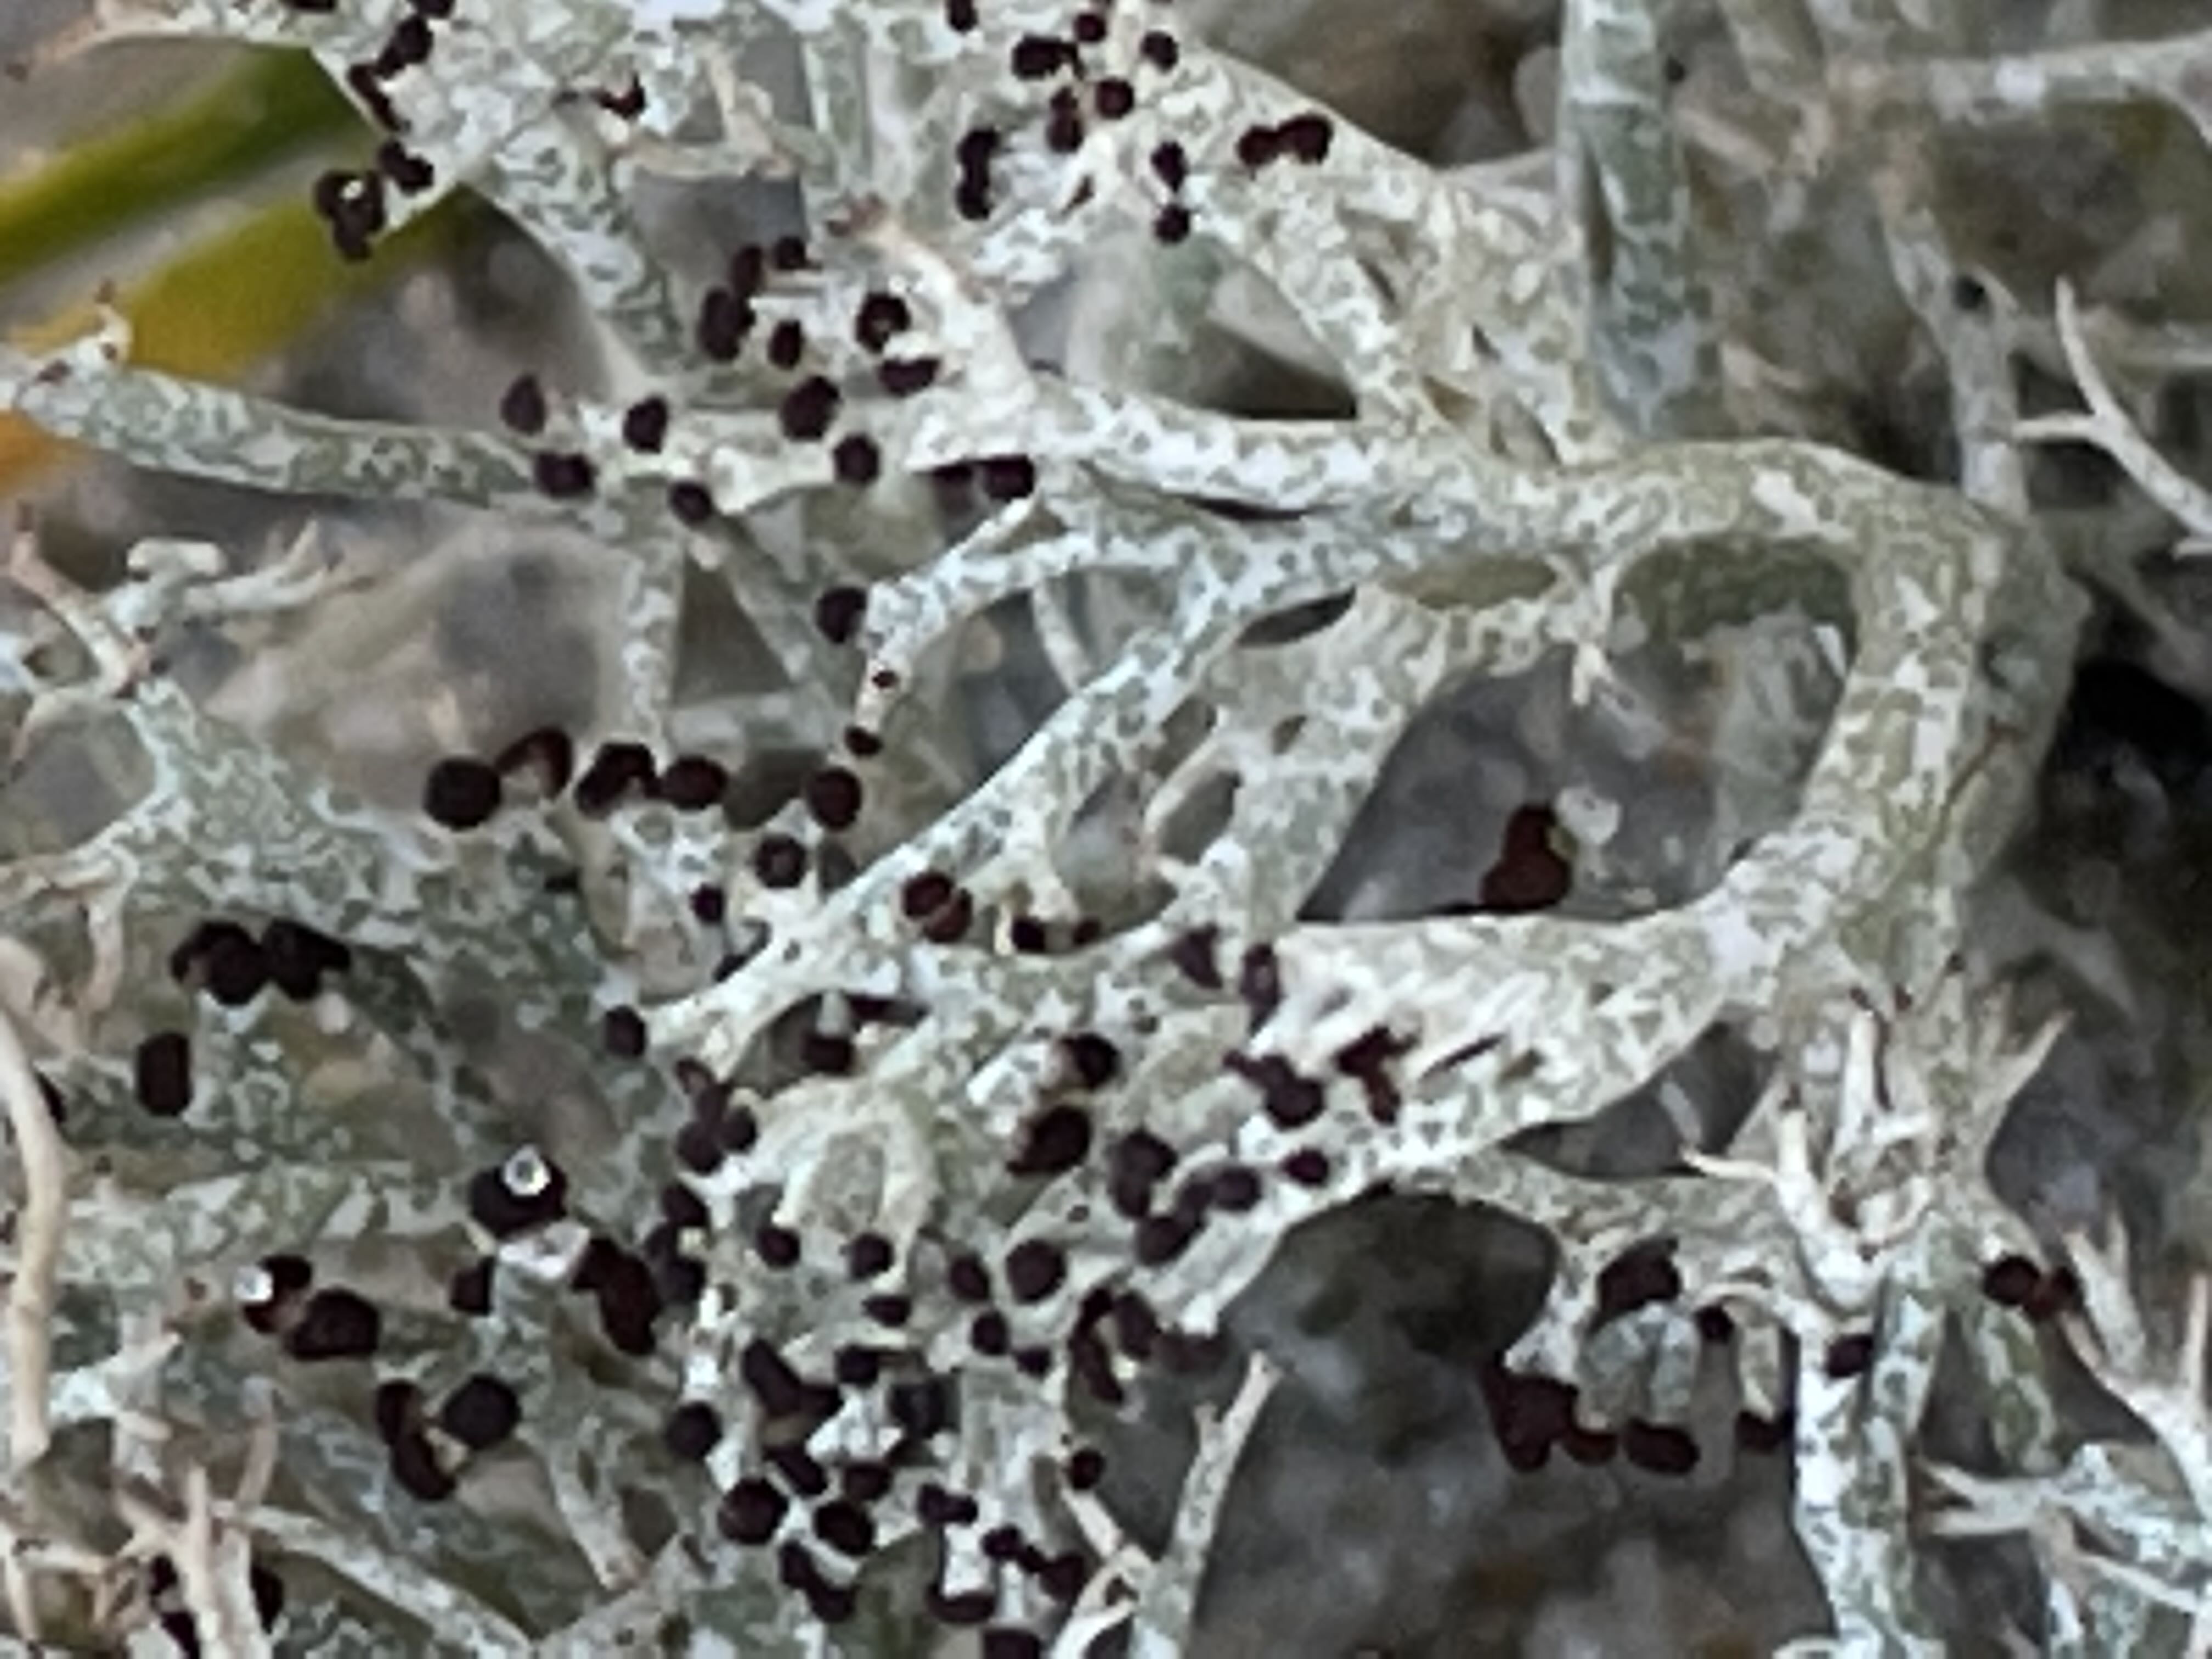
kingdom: Fungi
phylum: Ascomycota
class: Lecanoromycetes
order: Lecanorales
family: Cladoniaceae
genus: Cladonia
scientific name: Cladonia rangiformis
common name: spættet bægerlav
